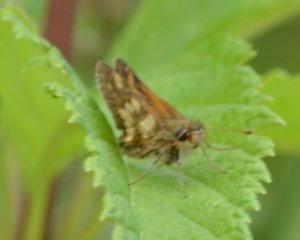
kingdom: Animalia
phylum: Arthropoda
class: Insecta
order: Lepidoptera
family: Hesperiidae
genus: Polites
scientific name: Polites coras
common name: Peck's Skipper
